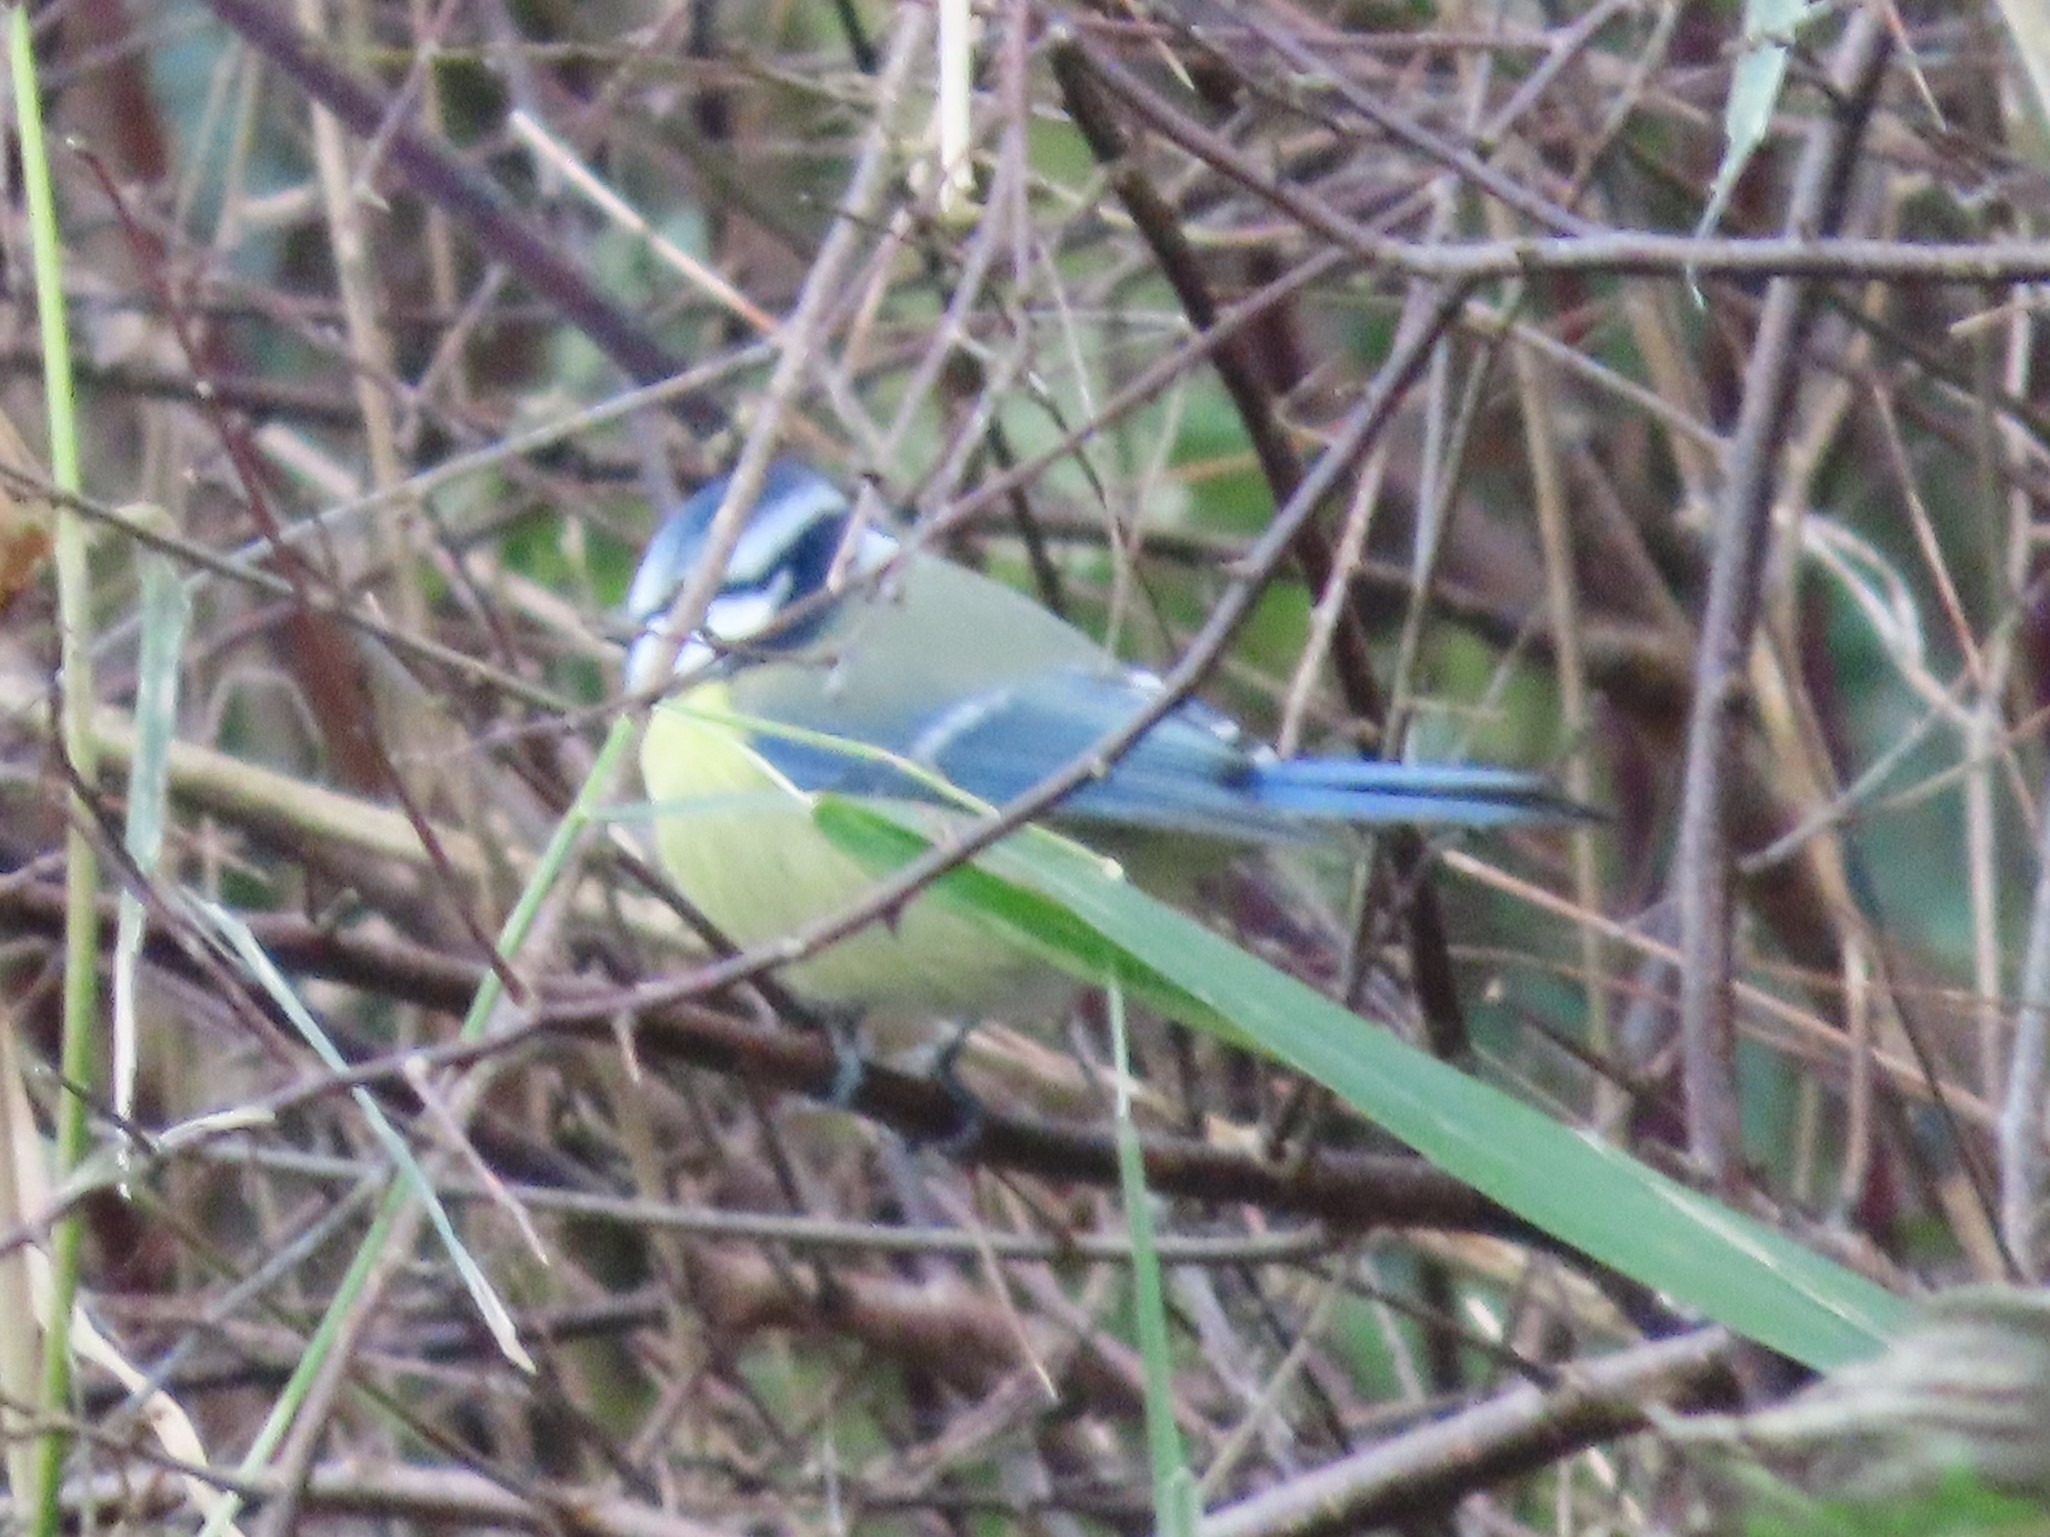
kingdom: Animalia
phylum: Chordata
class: Aves
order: Passeriformes
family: Paridae
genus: Cyanistes
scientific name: Cyanistes caeruleus
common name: Blåmejse
